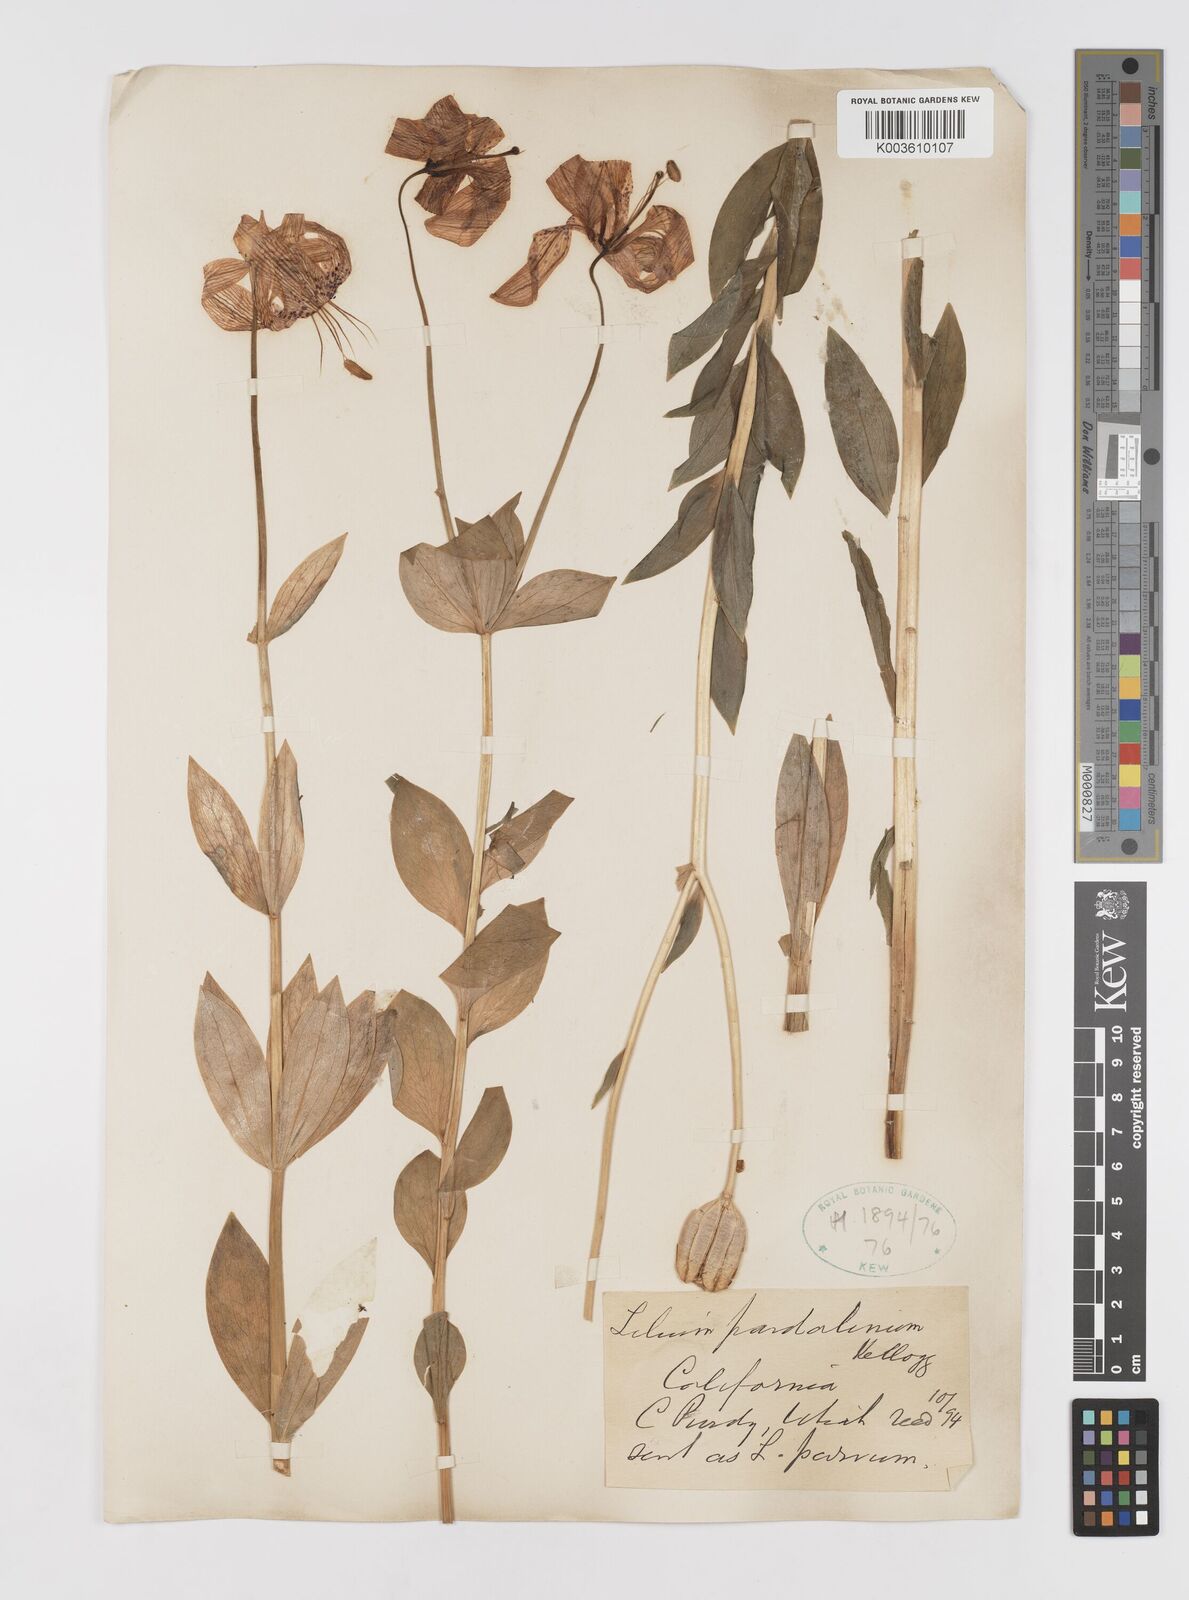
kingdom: Plantae
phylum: Tracheophyta
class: Liliopsida
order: Liliales
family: Liliaceae
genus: Lilium
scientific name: Lilium pardalinum
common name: Panther lily
